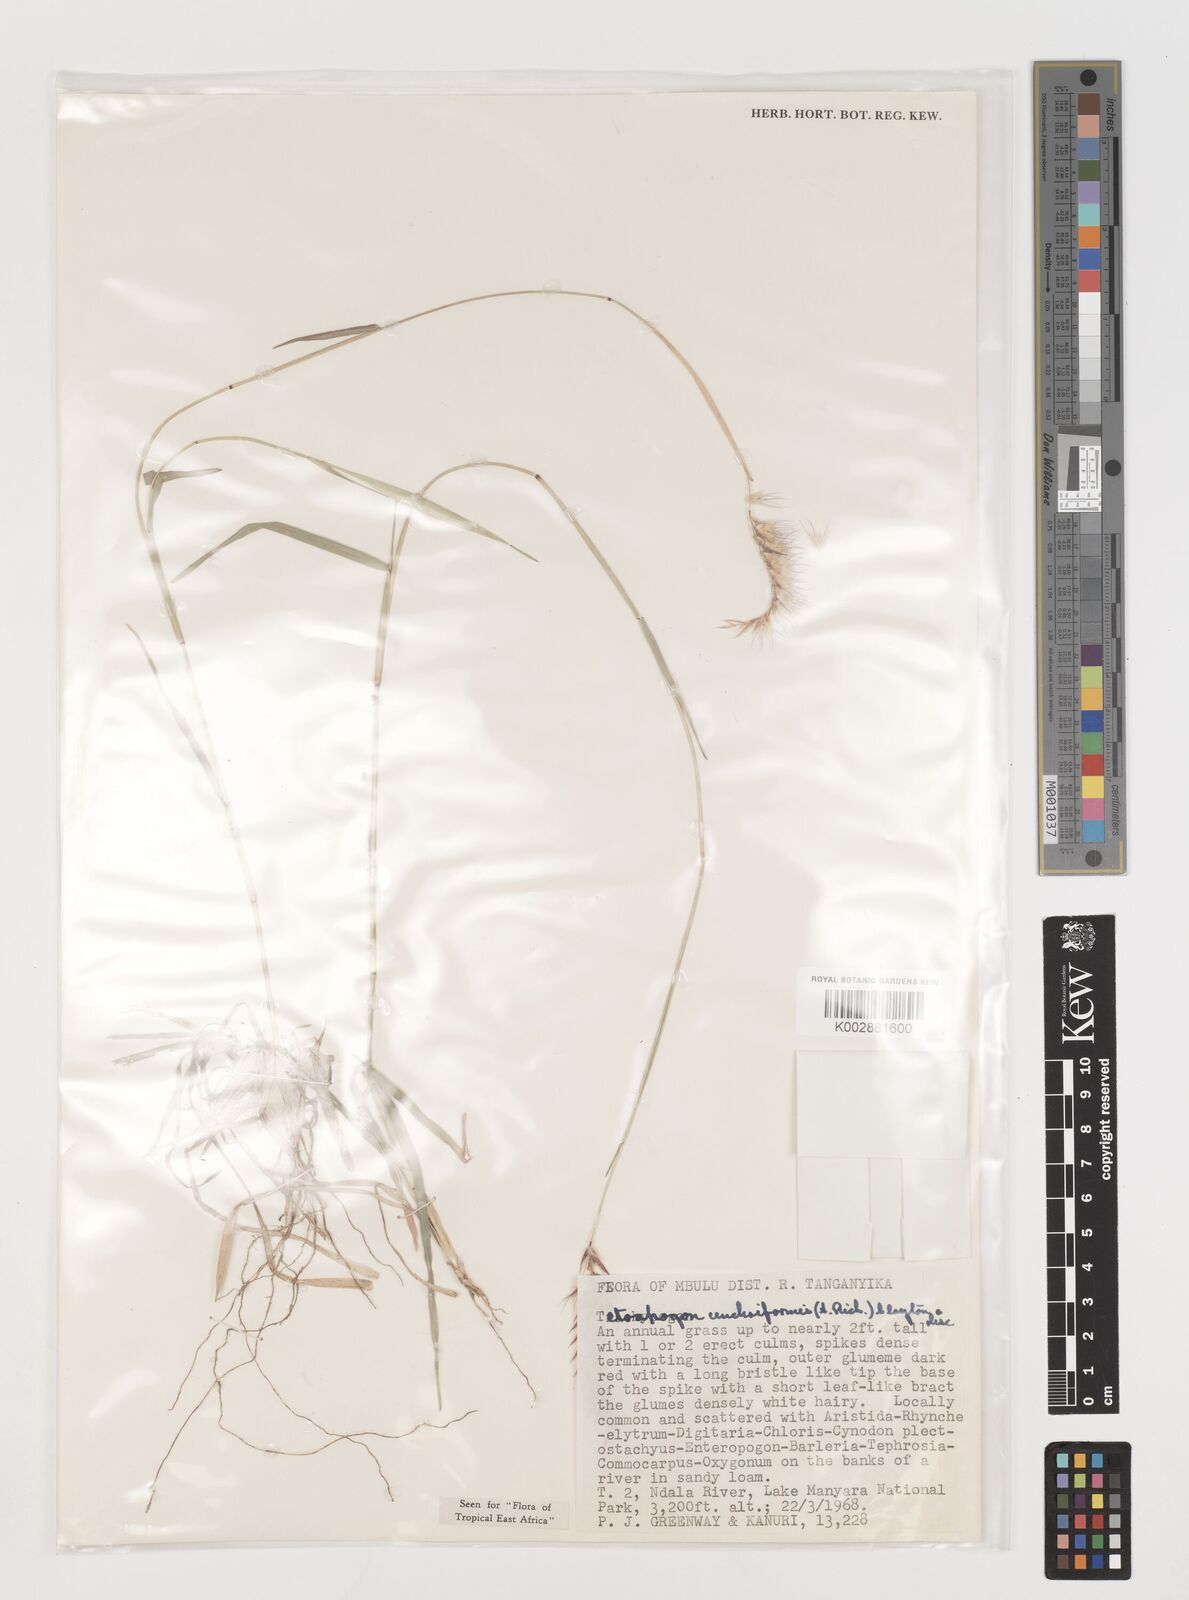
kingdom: Plantae
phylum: Tracheophyta
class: Liliopsida
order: Poales
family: Poaceae
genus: Tetrapogon
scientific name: Tetrapogon cenchriformis
